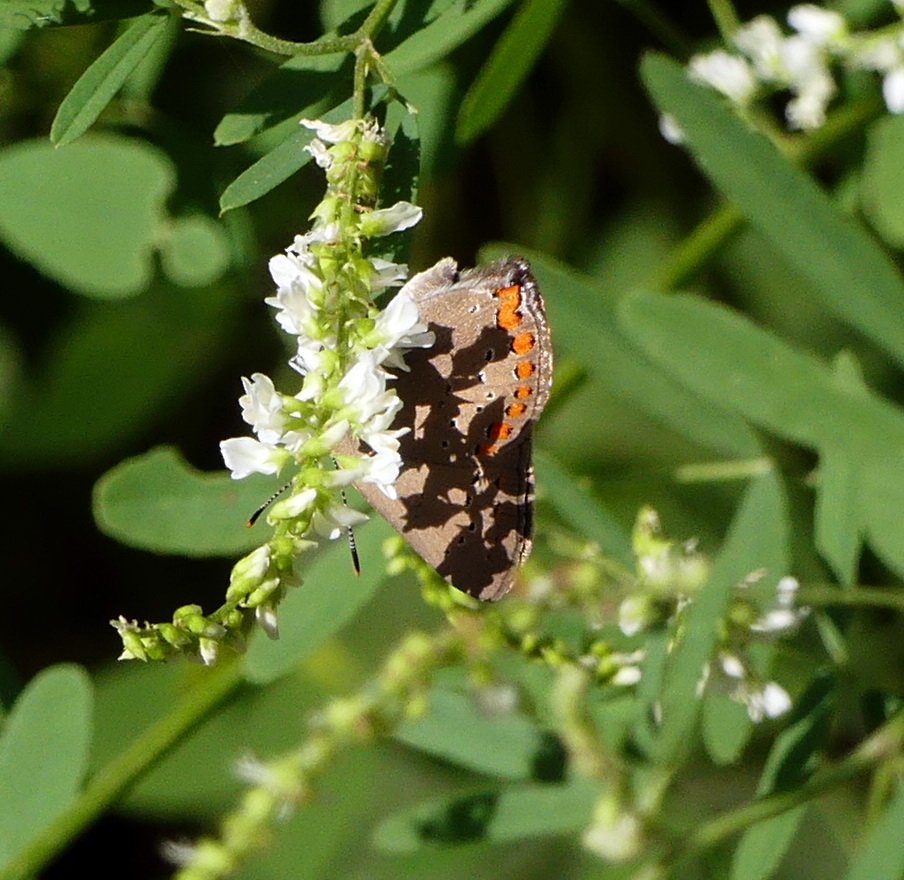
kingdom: Animalia
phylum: Arthropoda
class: Insecta
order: Lepidoptera
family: Lycaenidae
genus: Harkenclenus
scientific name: Harkenclenus titus
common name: Coral Hairstreak
